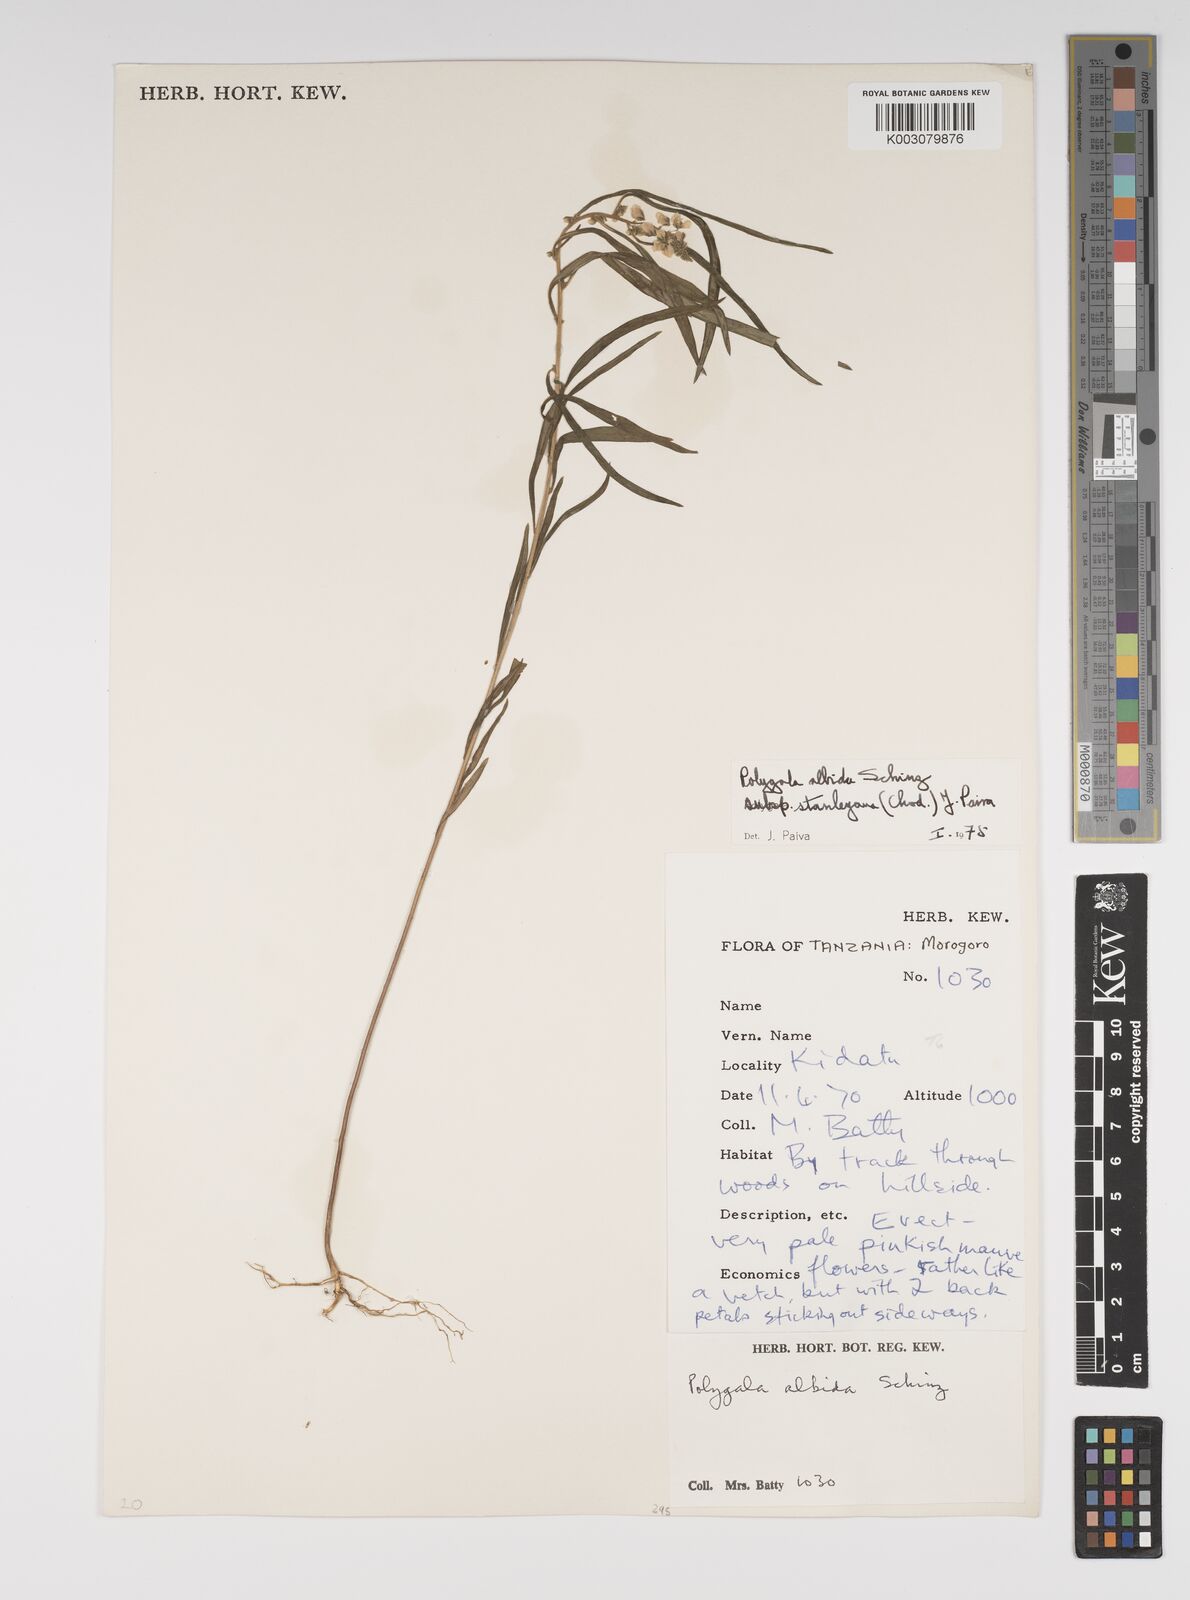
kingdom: Plantae
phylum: Tracheophyta
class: Magnoliopsida
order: Fabales
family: Polygalaceae
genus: Polygala
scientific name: Polygala albida
